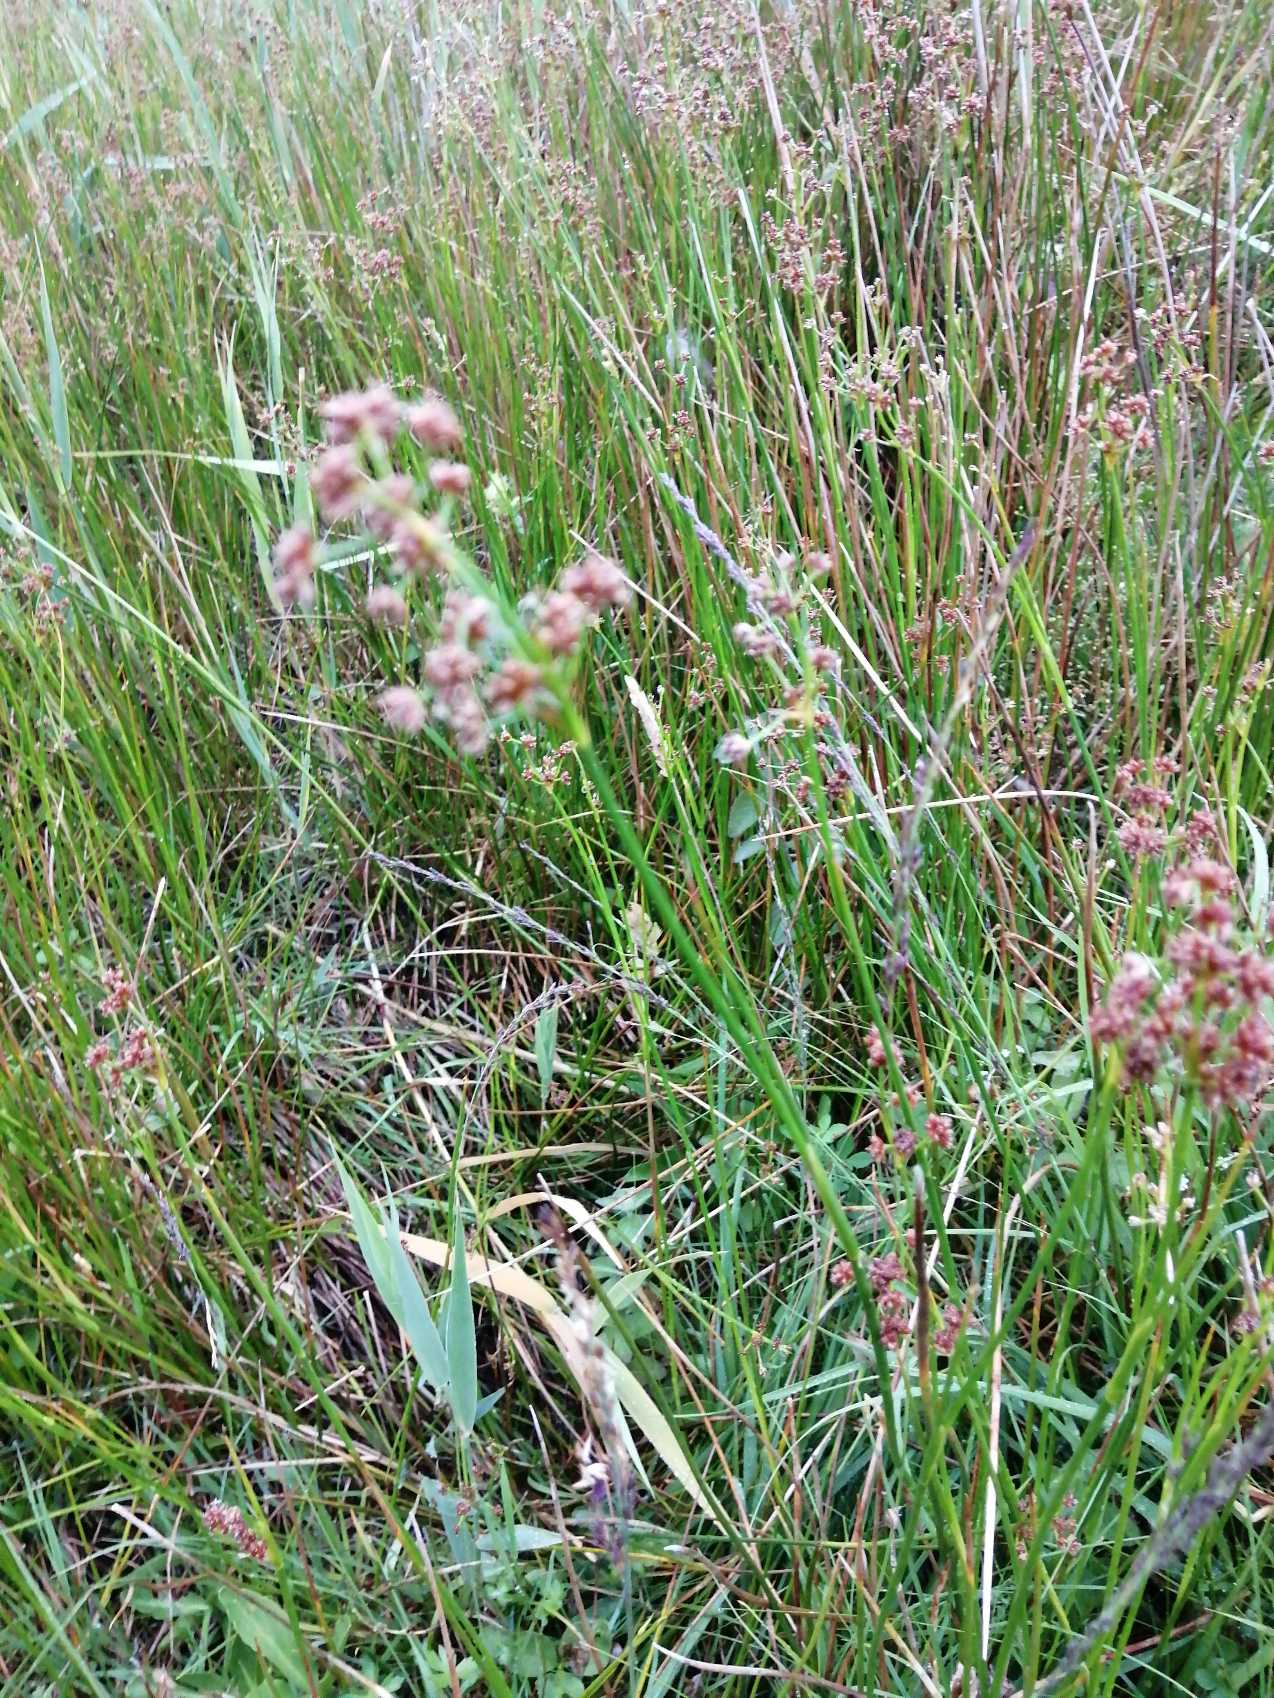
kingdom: Plantae
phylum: Tracheophyta
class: Liliopsida
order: Poales
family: Juncaceae
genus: Juncus
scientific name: Juncus subnodulosus
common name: Butblomstret siv
